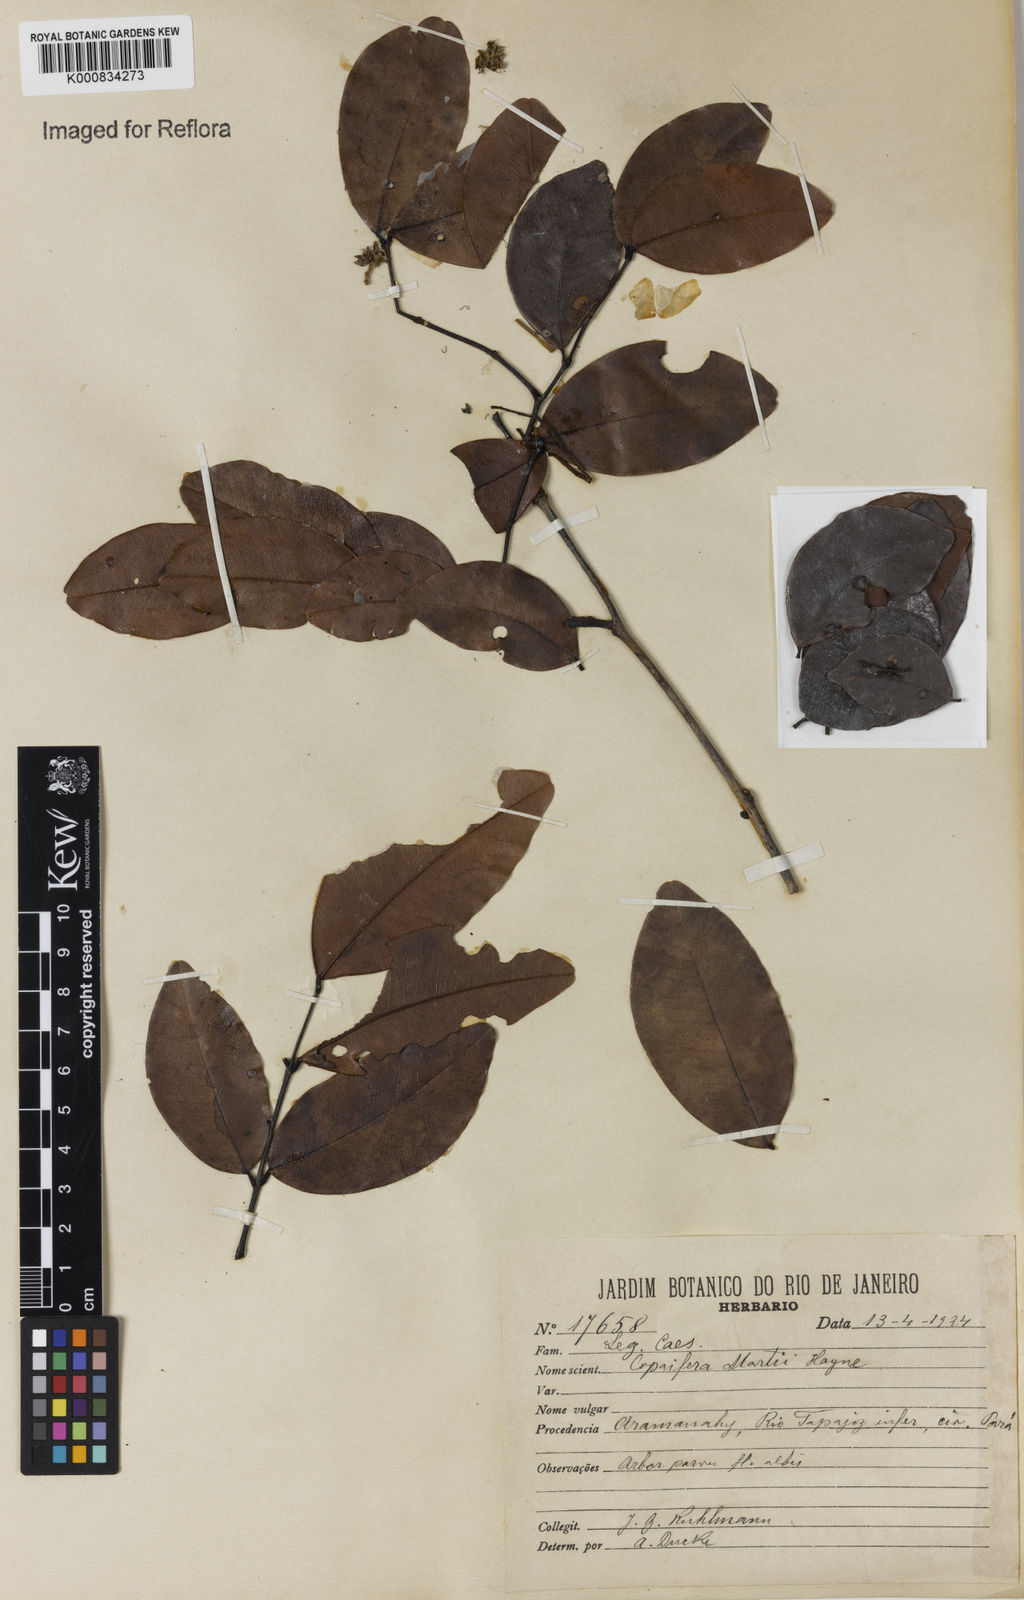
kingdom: Plantae
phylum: Tracheophyta
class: Magnoliopsida
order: Fabales
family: Fabaceae
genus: Copaifera
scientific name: Copaifera martii
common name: Copaiba
